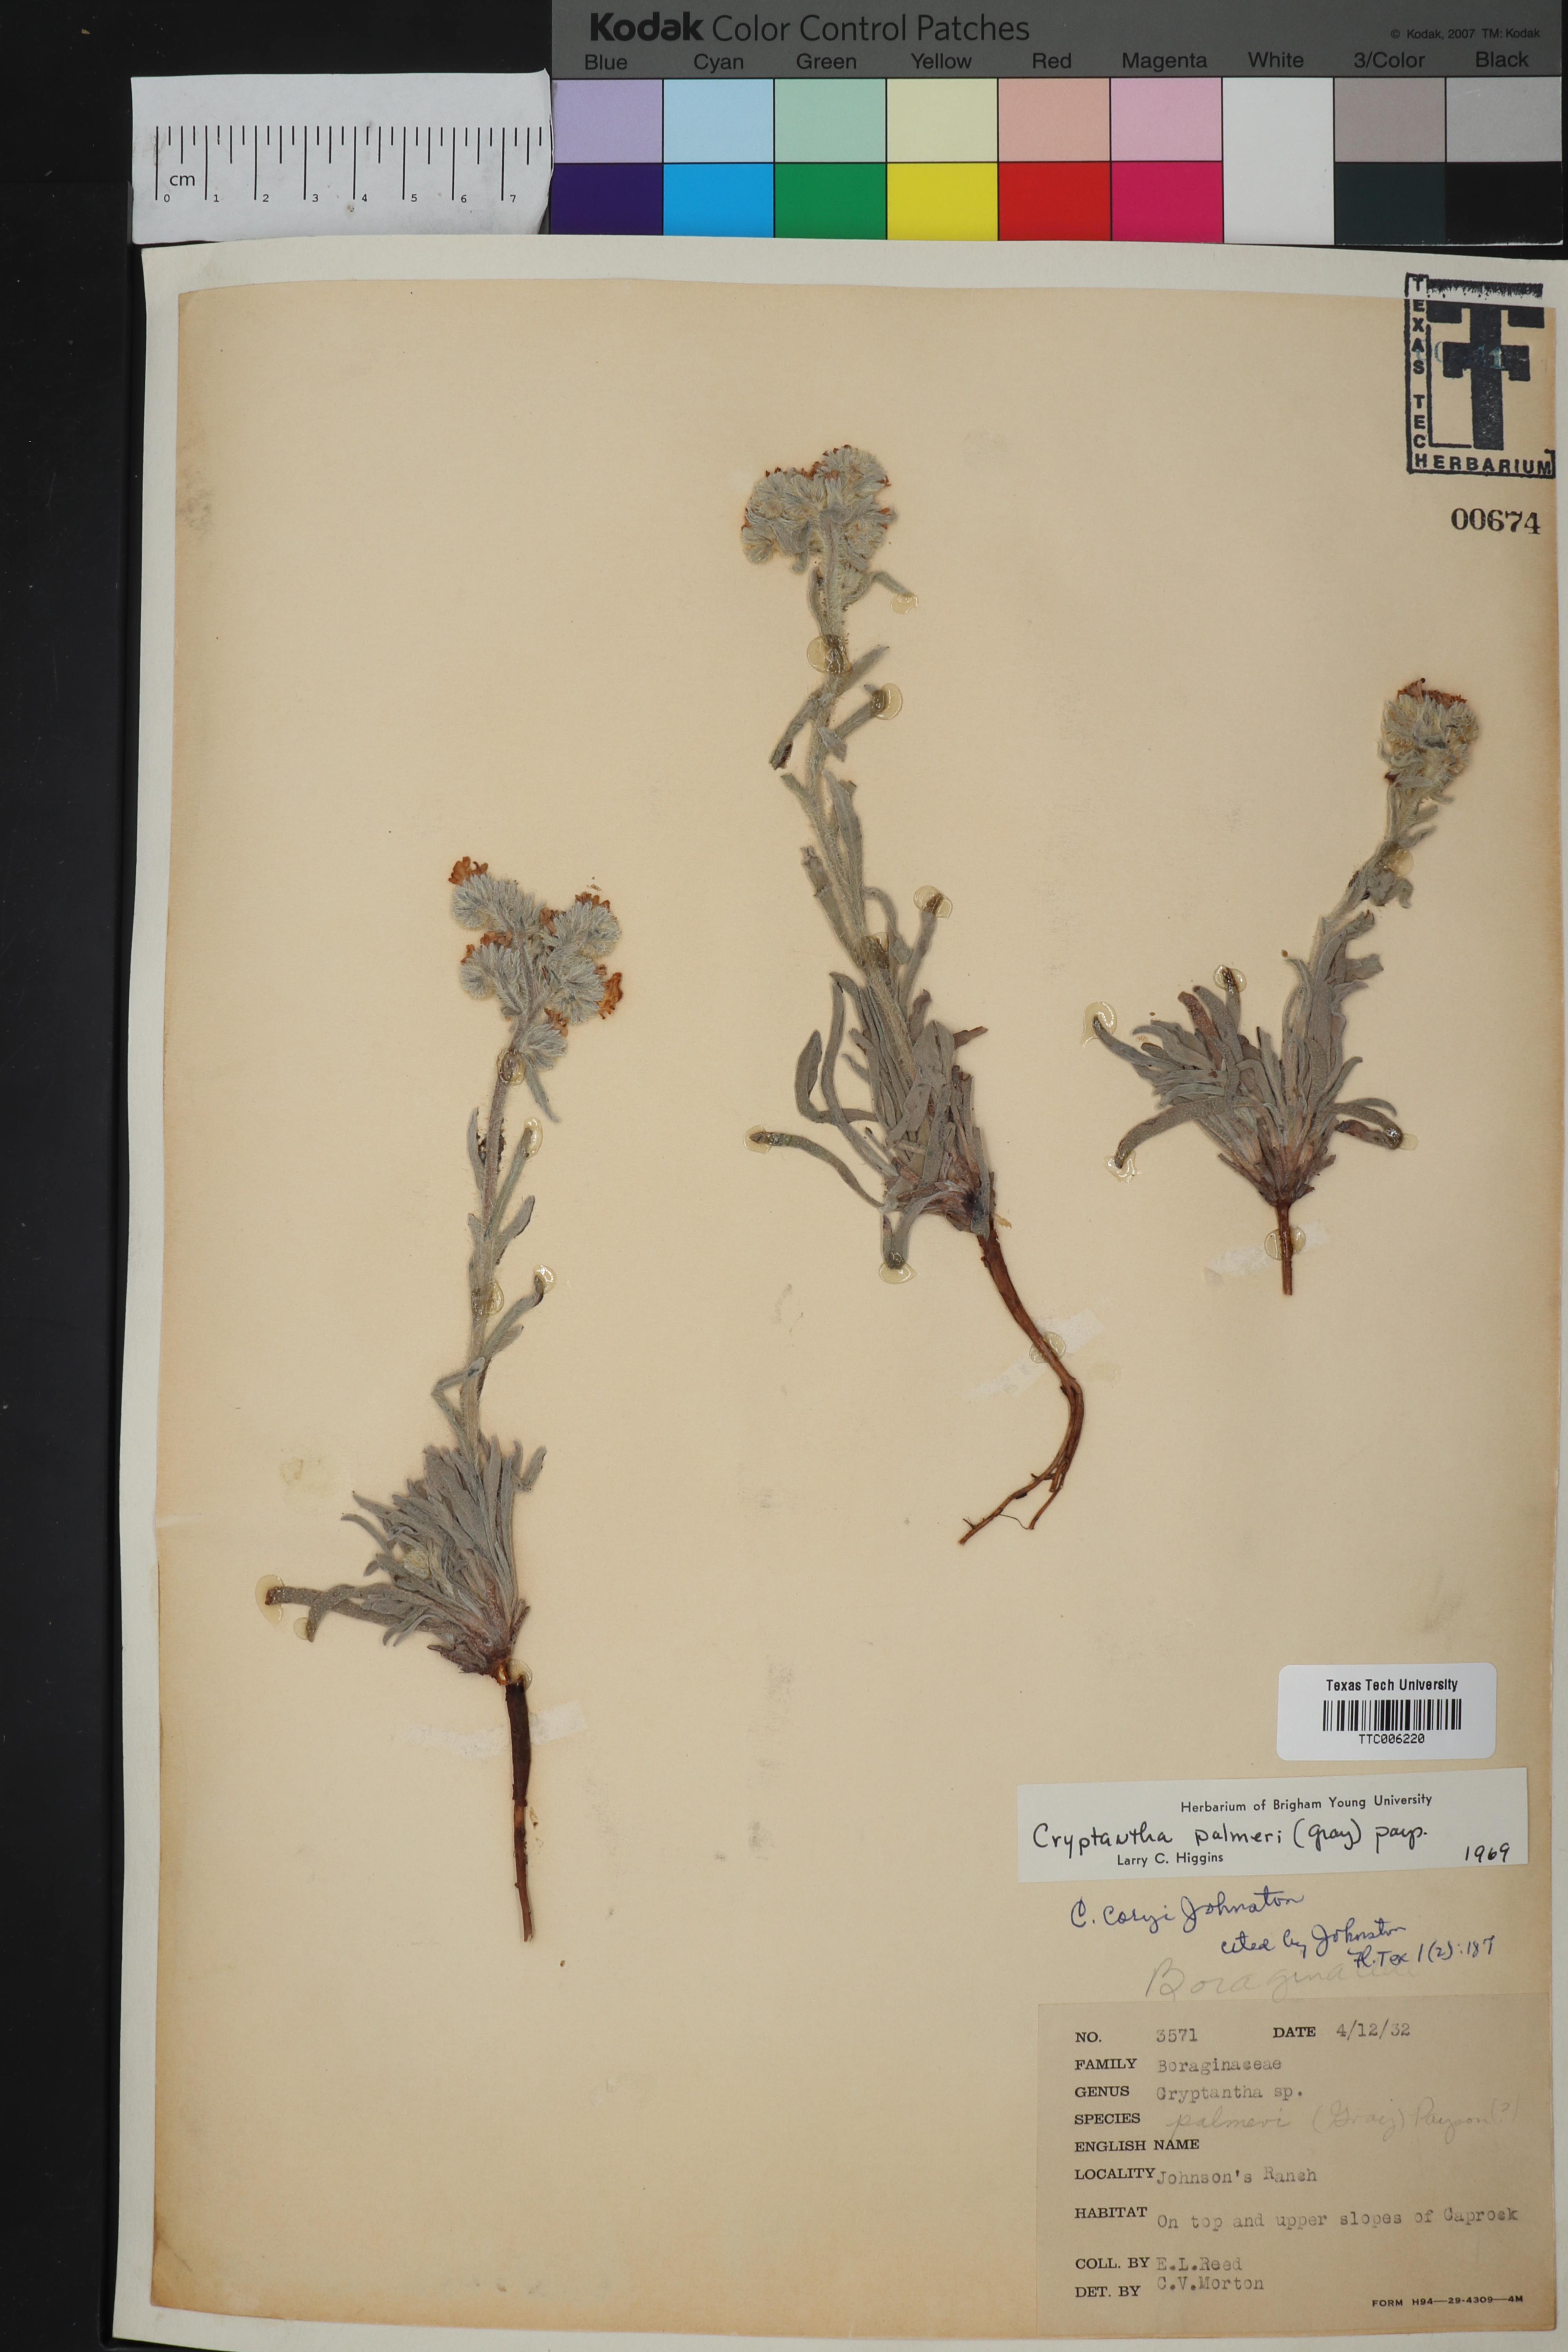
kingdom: Plantae
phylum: Tracheophyta
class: Magnoliopsida
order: Boraginales
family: Boraginaceae
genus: Oreocarya
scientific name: Oreocarya palmeri
